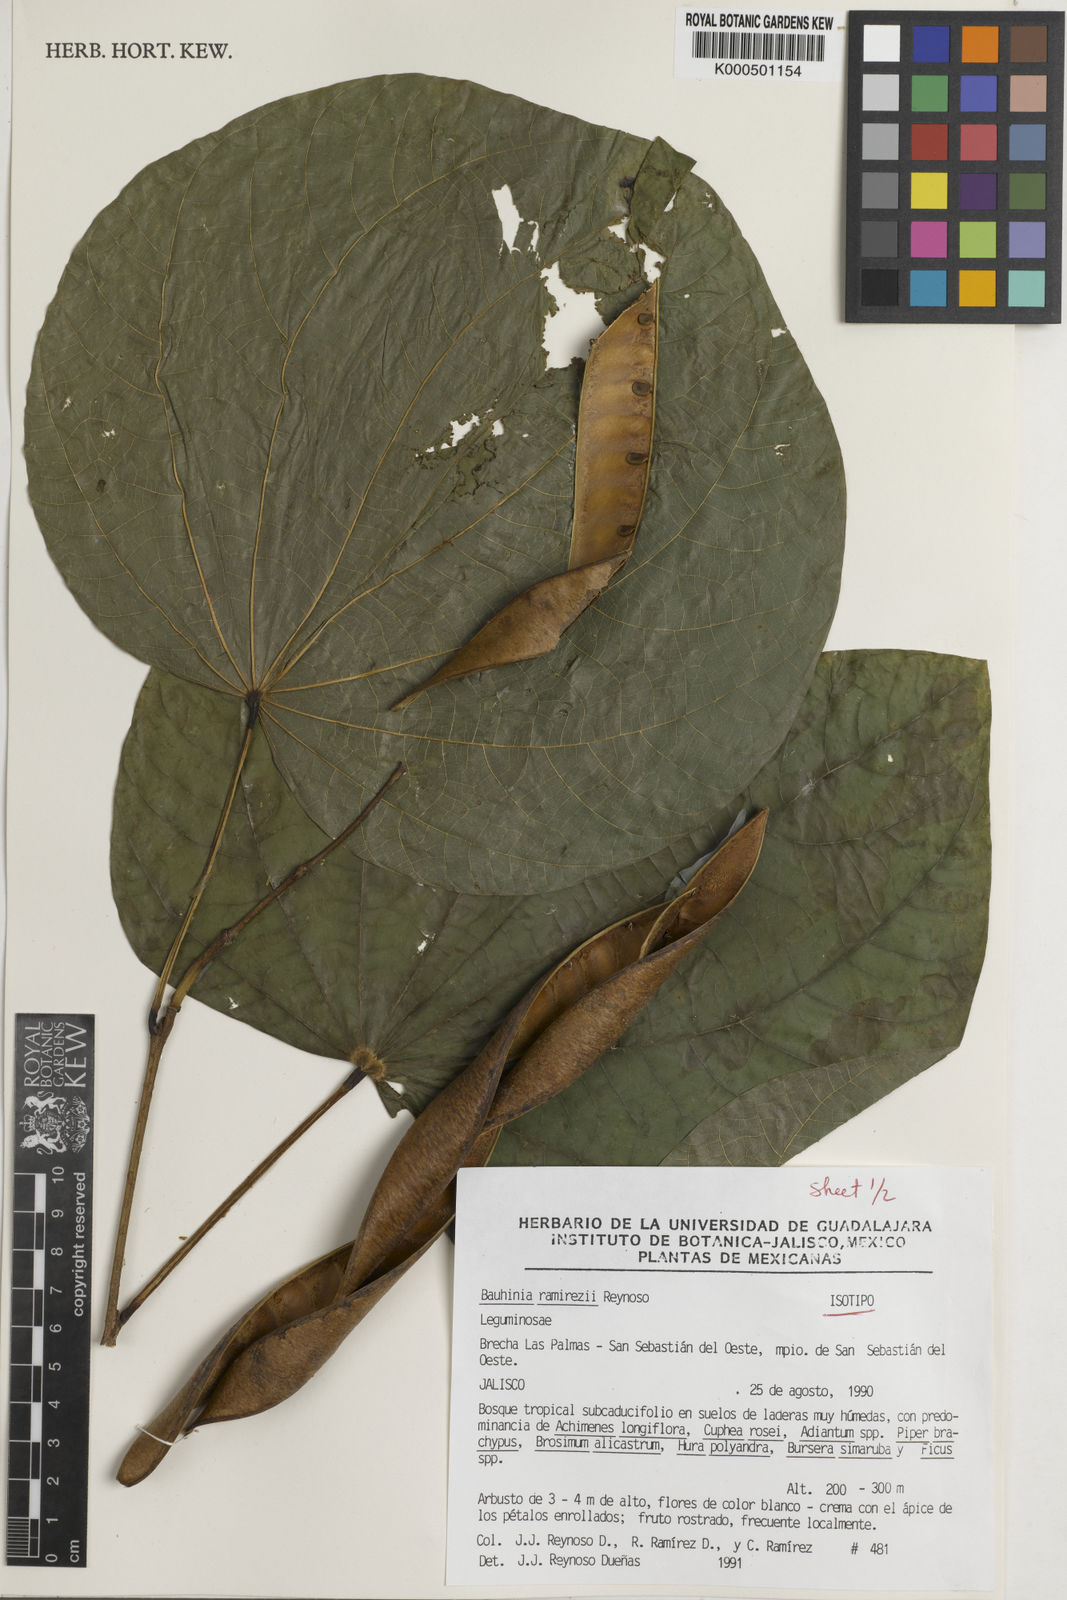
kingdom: Plantae
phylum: Tracheophyta
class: Magnoliopsida
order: Fabales
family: Fabaceae
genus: Bauhinia
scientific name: Bauhinia ramirezii
